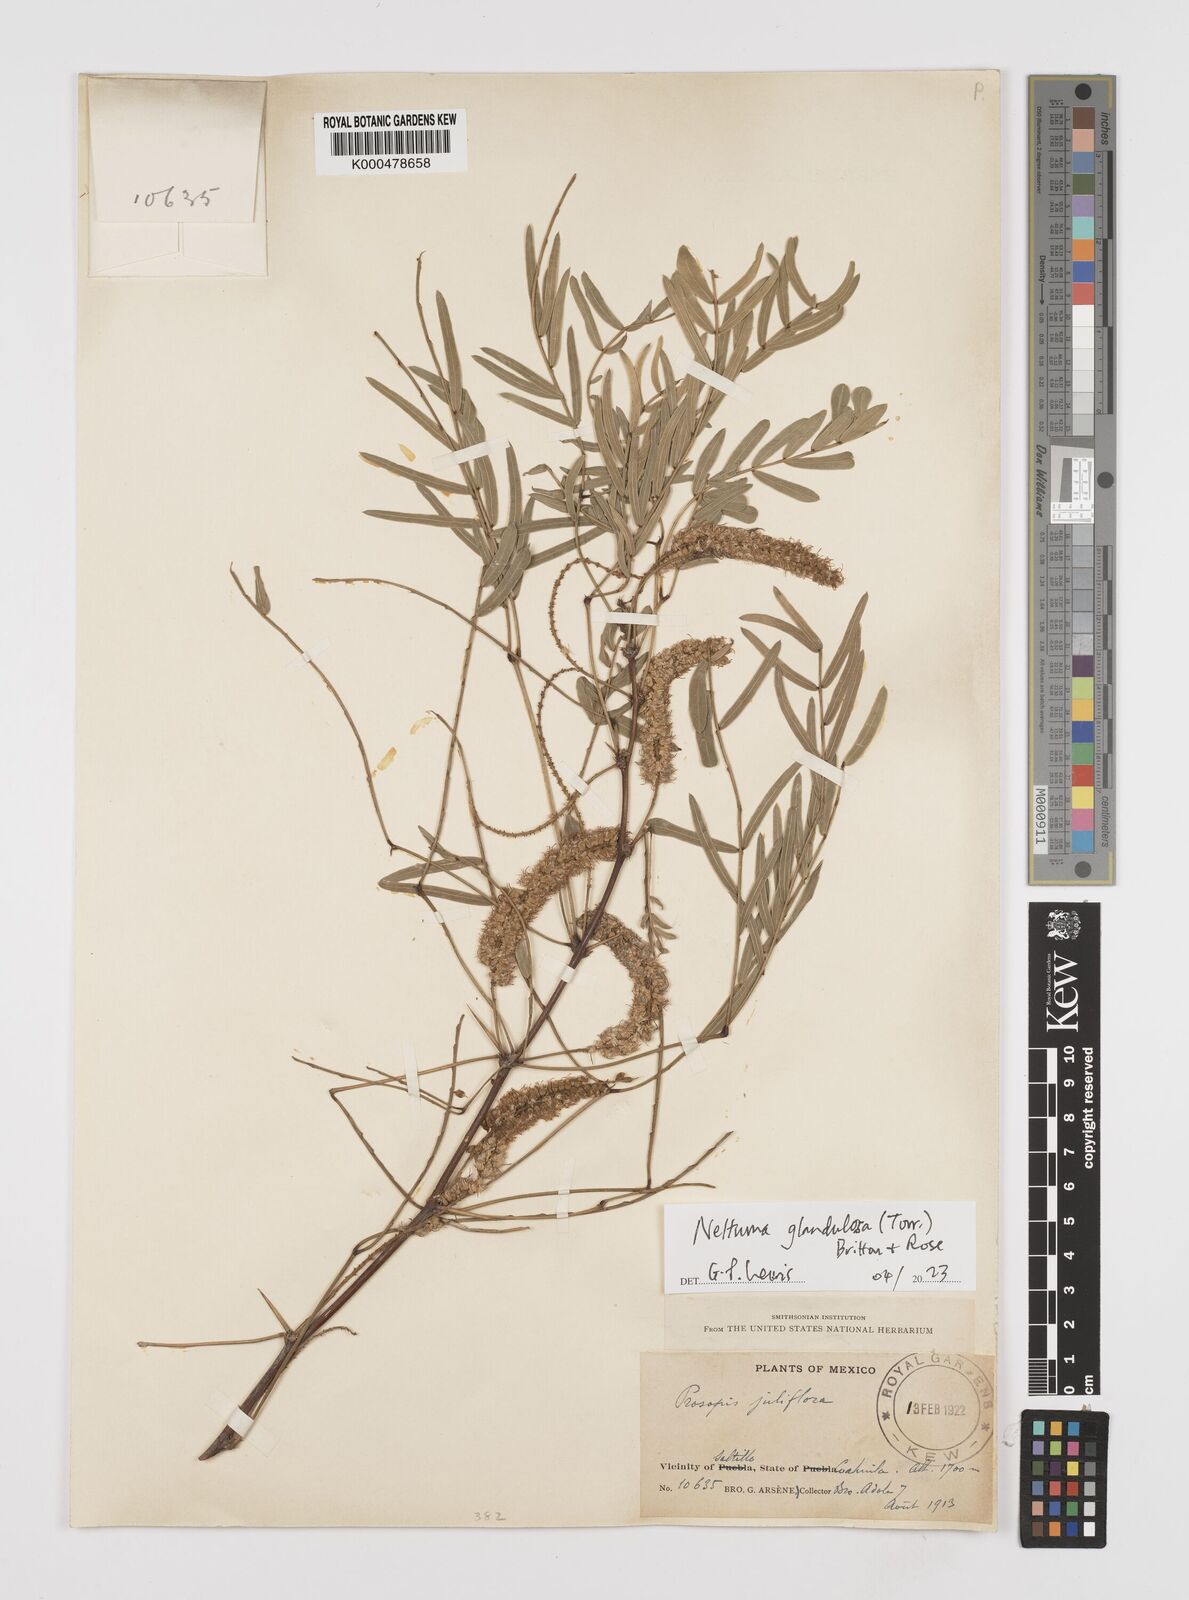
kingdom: Plantae
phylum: Tracheophyta
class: Magnoliopsida
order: Fabales
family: Fabaceae
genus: Prosopis
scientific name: Prosopis juliflora
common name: Mesquite
